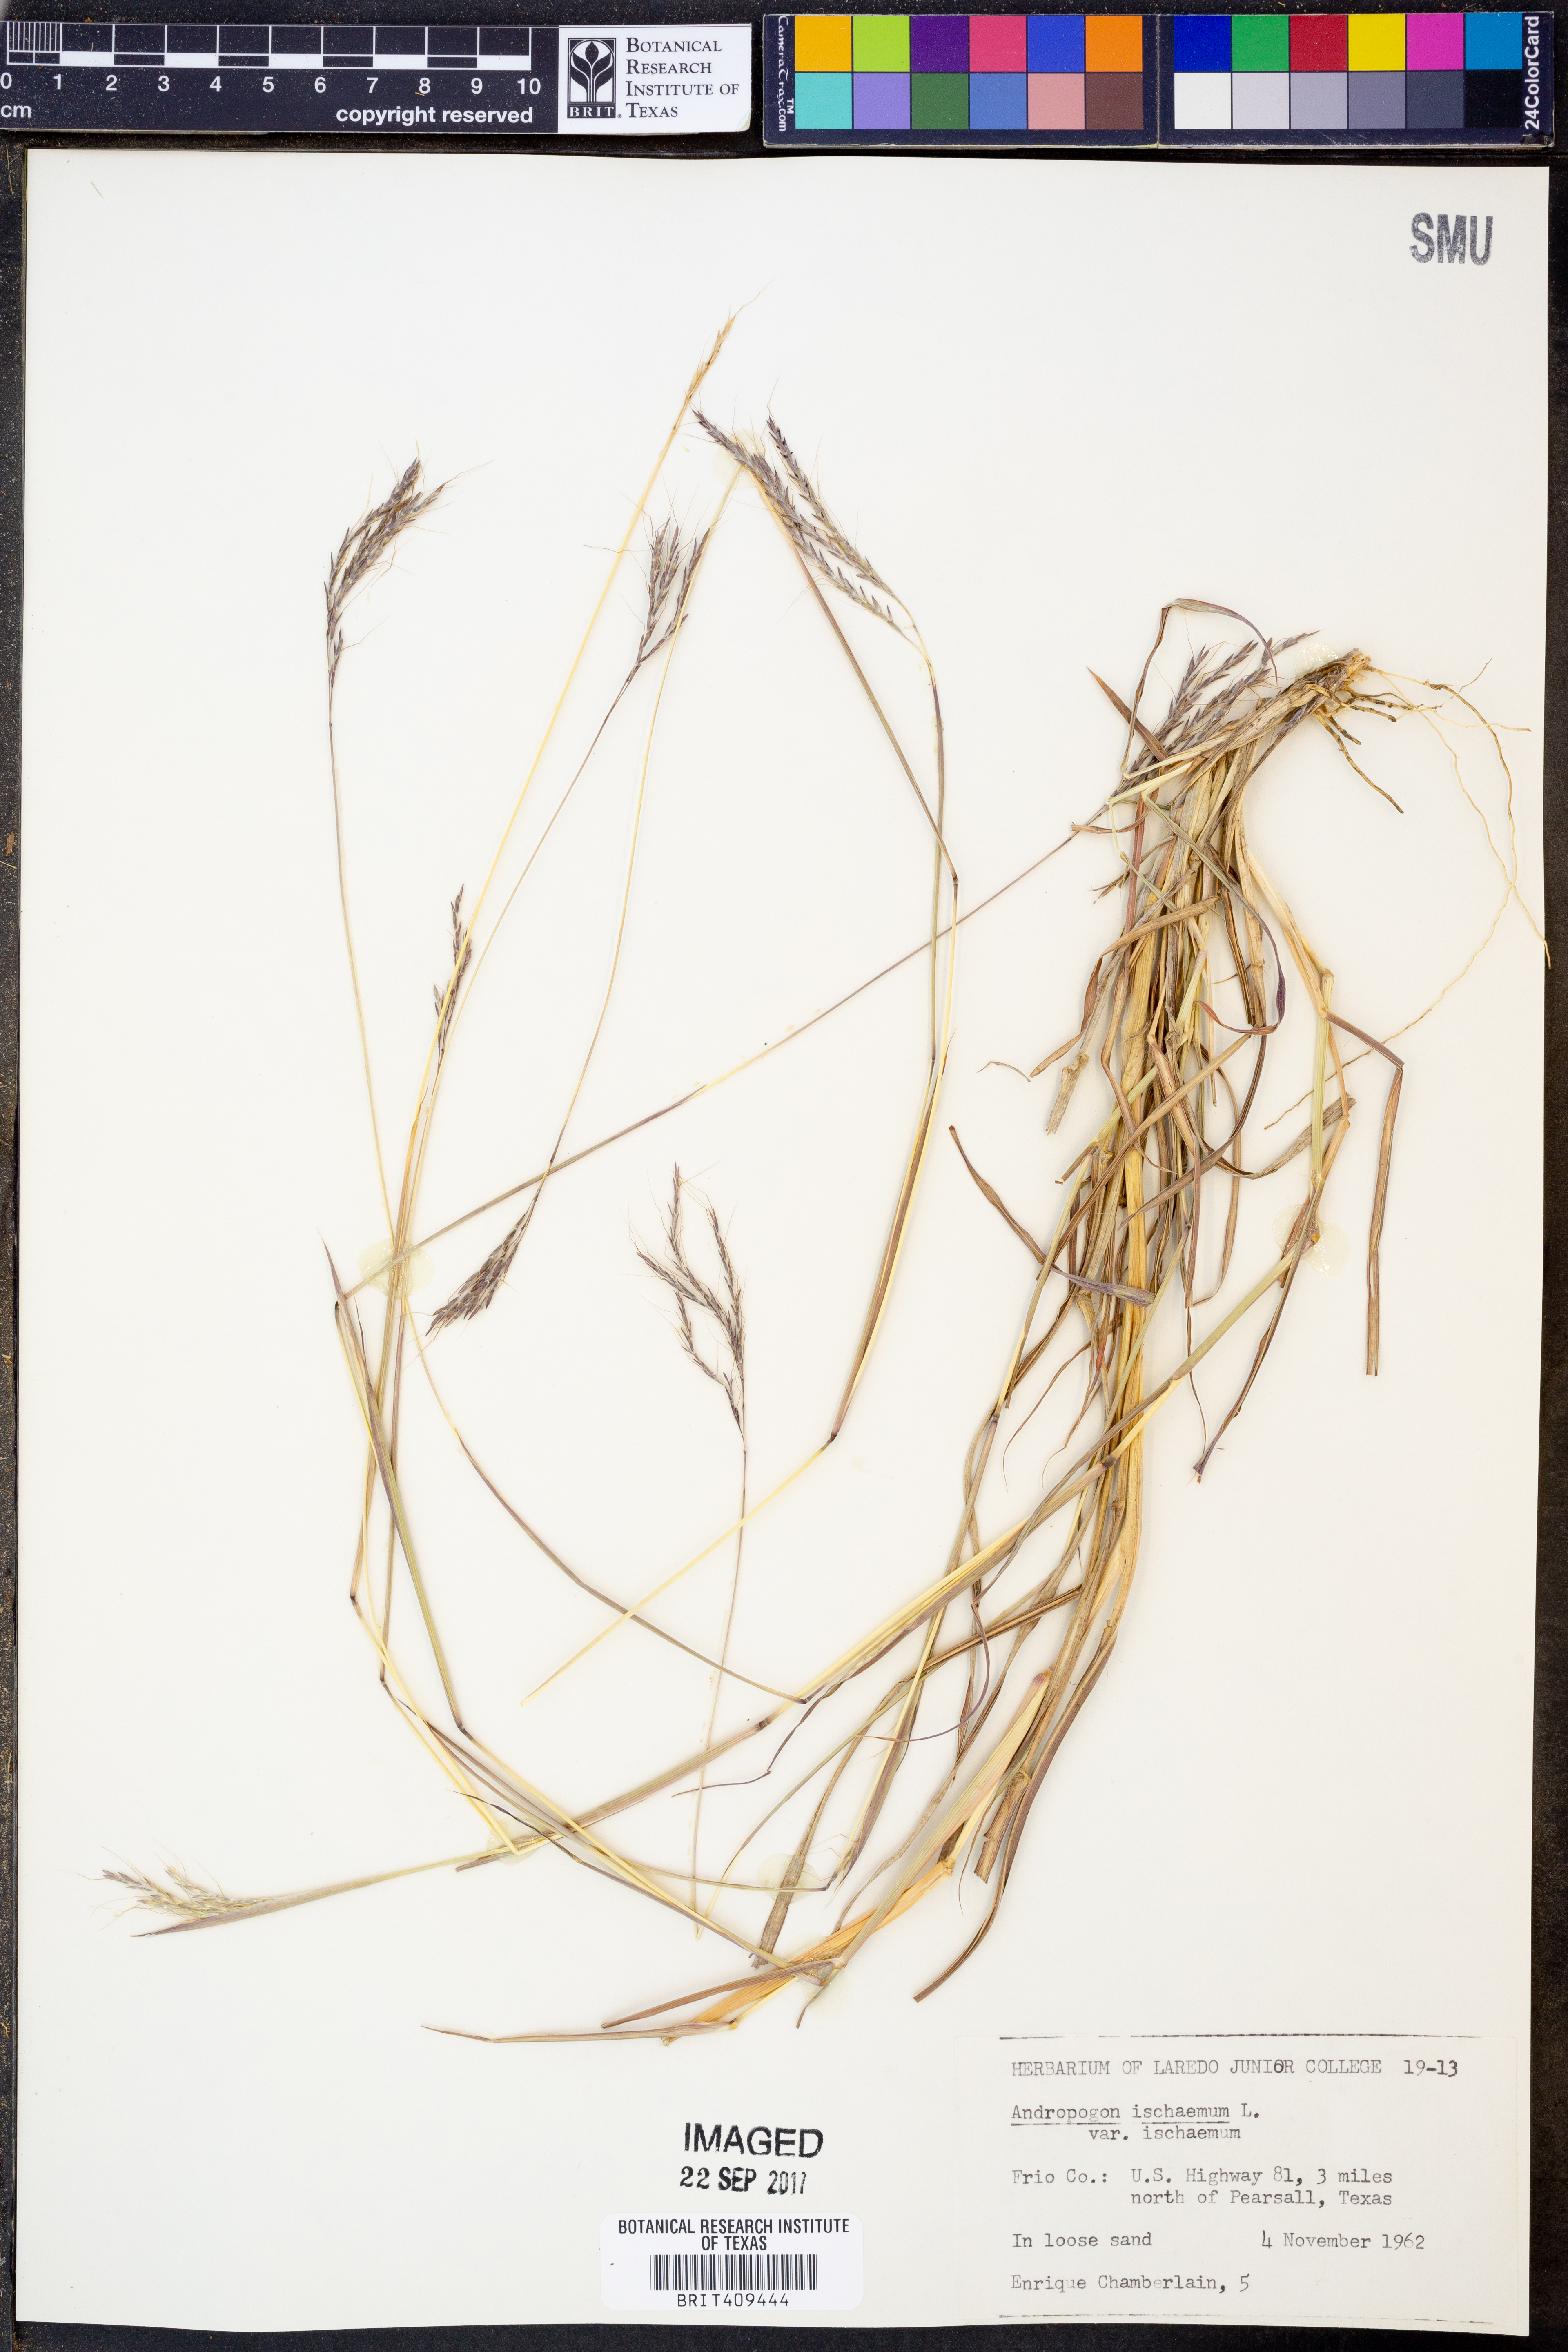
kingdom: Plantae
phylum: Tracheophyta
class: Liliopsida
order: Poales
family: Poaceae
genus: Bothriochloa
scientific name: Bothriochloa ischaemum
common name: Yellow bluestem
